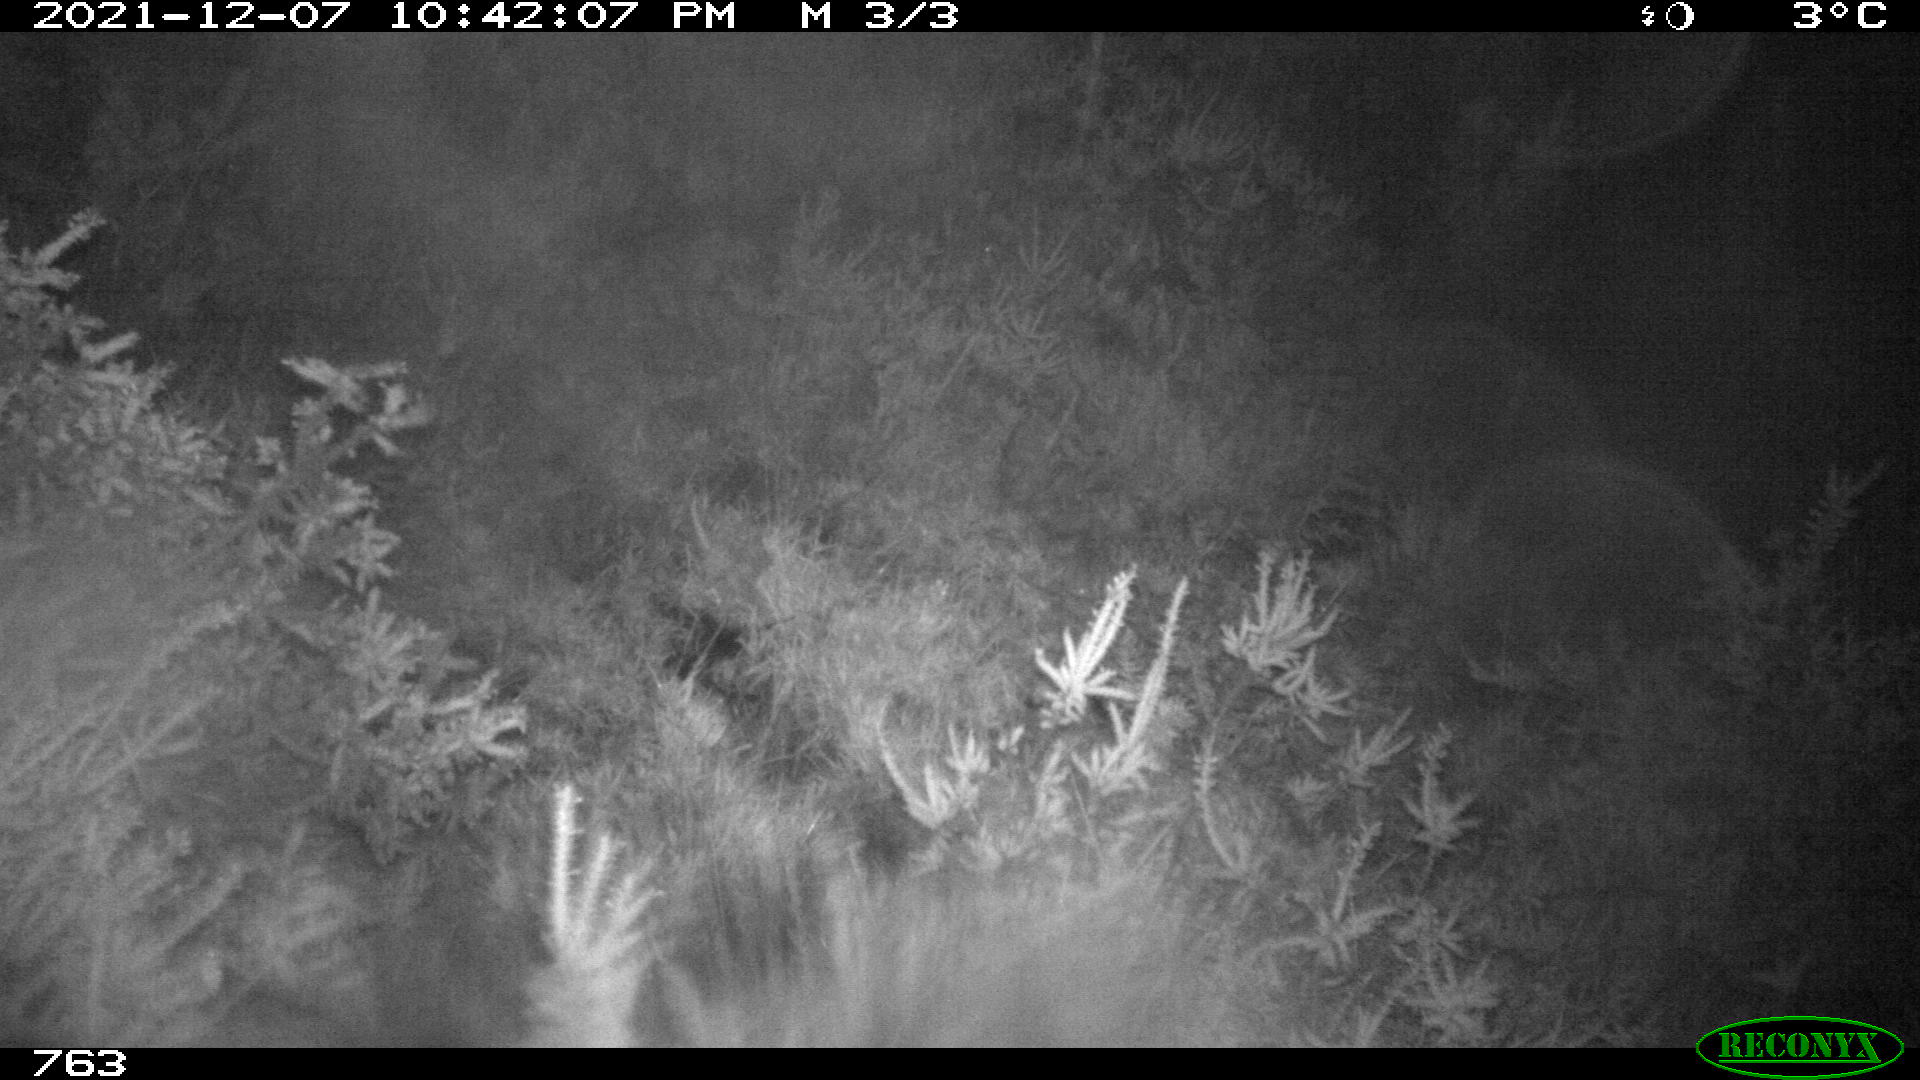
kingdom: Animalia
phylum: Chordata
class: Mammalia
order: Artiodactyla
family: Suidae
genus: Sus
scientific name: Sus scrofa
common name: Wild boar
